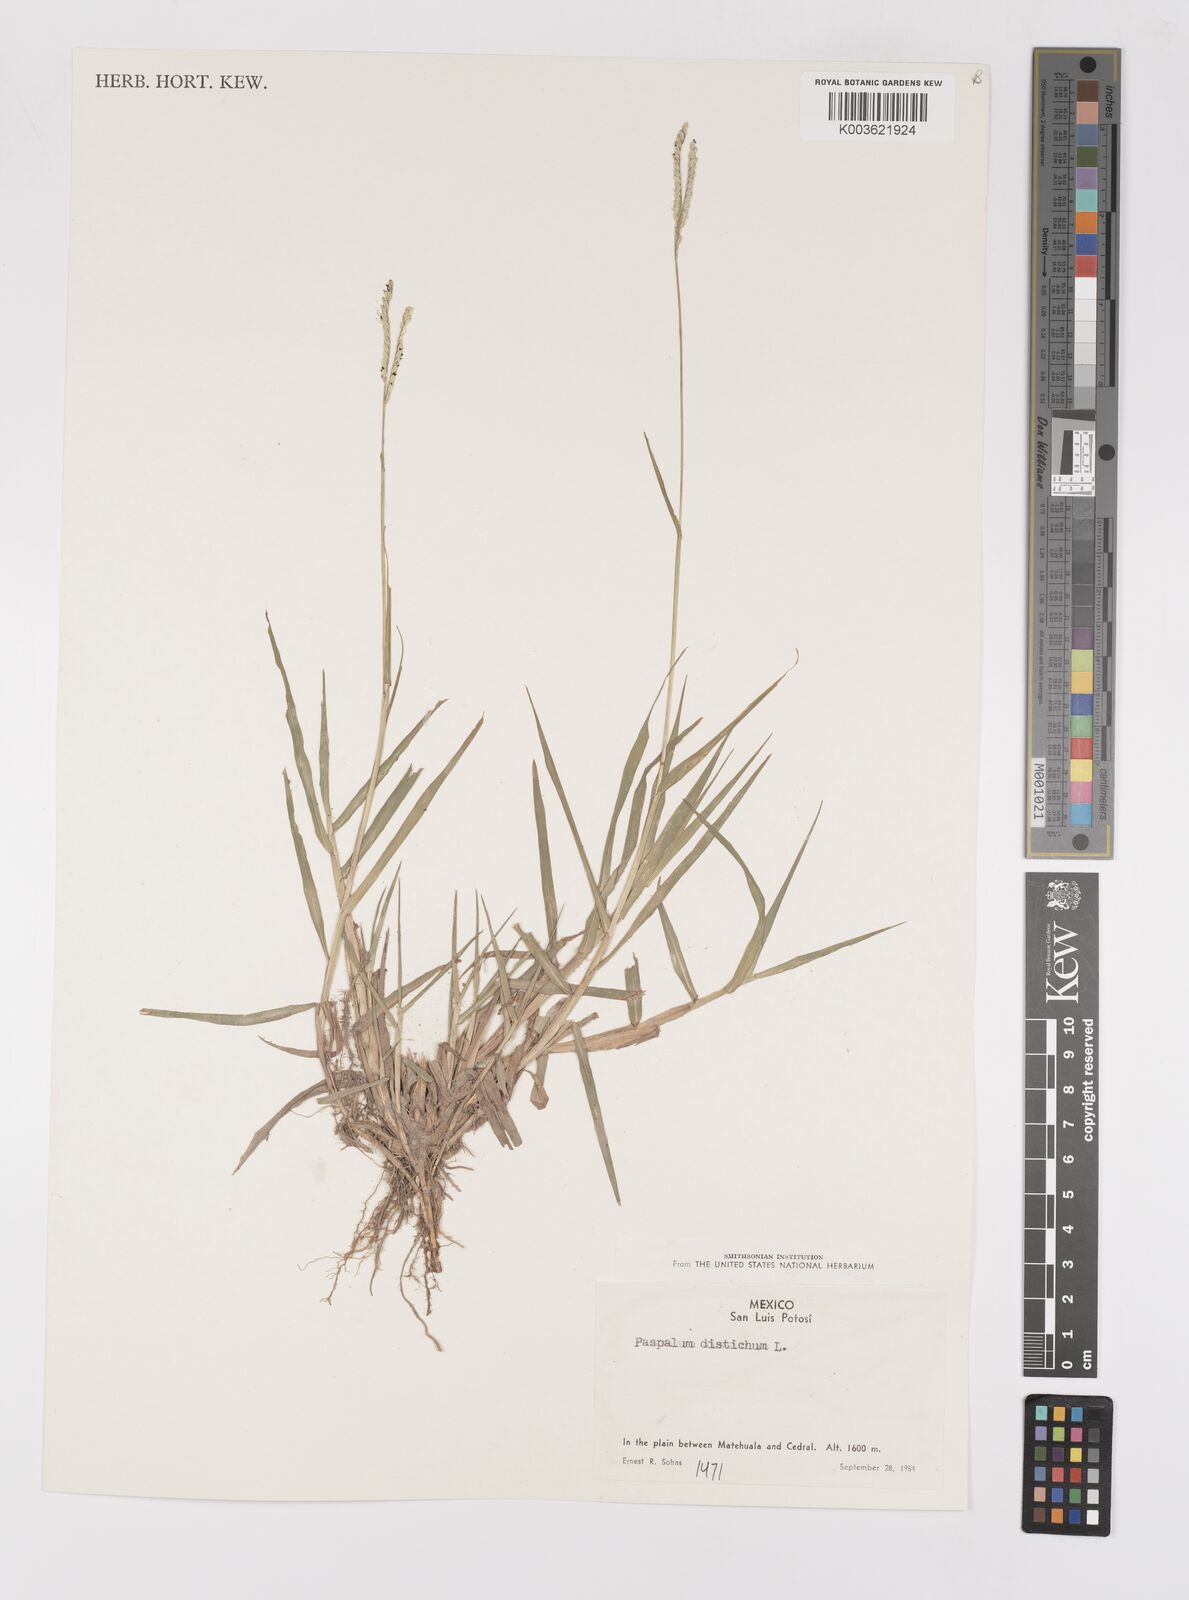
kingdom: Plantae
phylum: Tracheophyta
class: Liliopsida
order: Poales
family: Poaceae
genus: Paspalum
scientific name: Paspalum distichum
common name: Knotgrass
